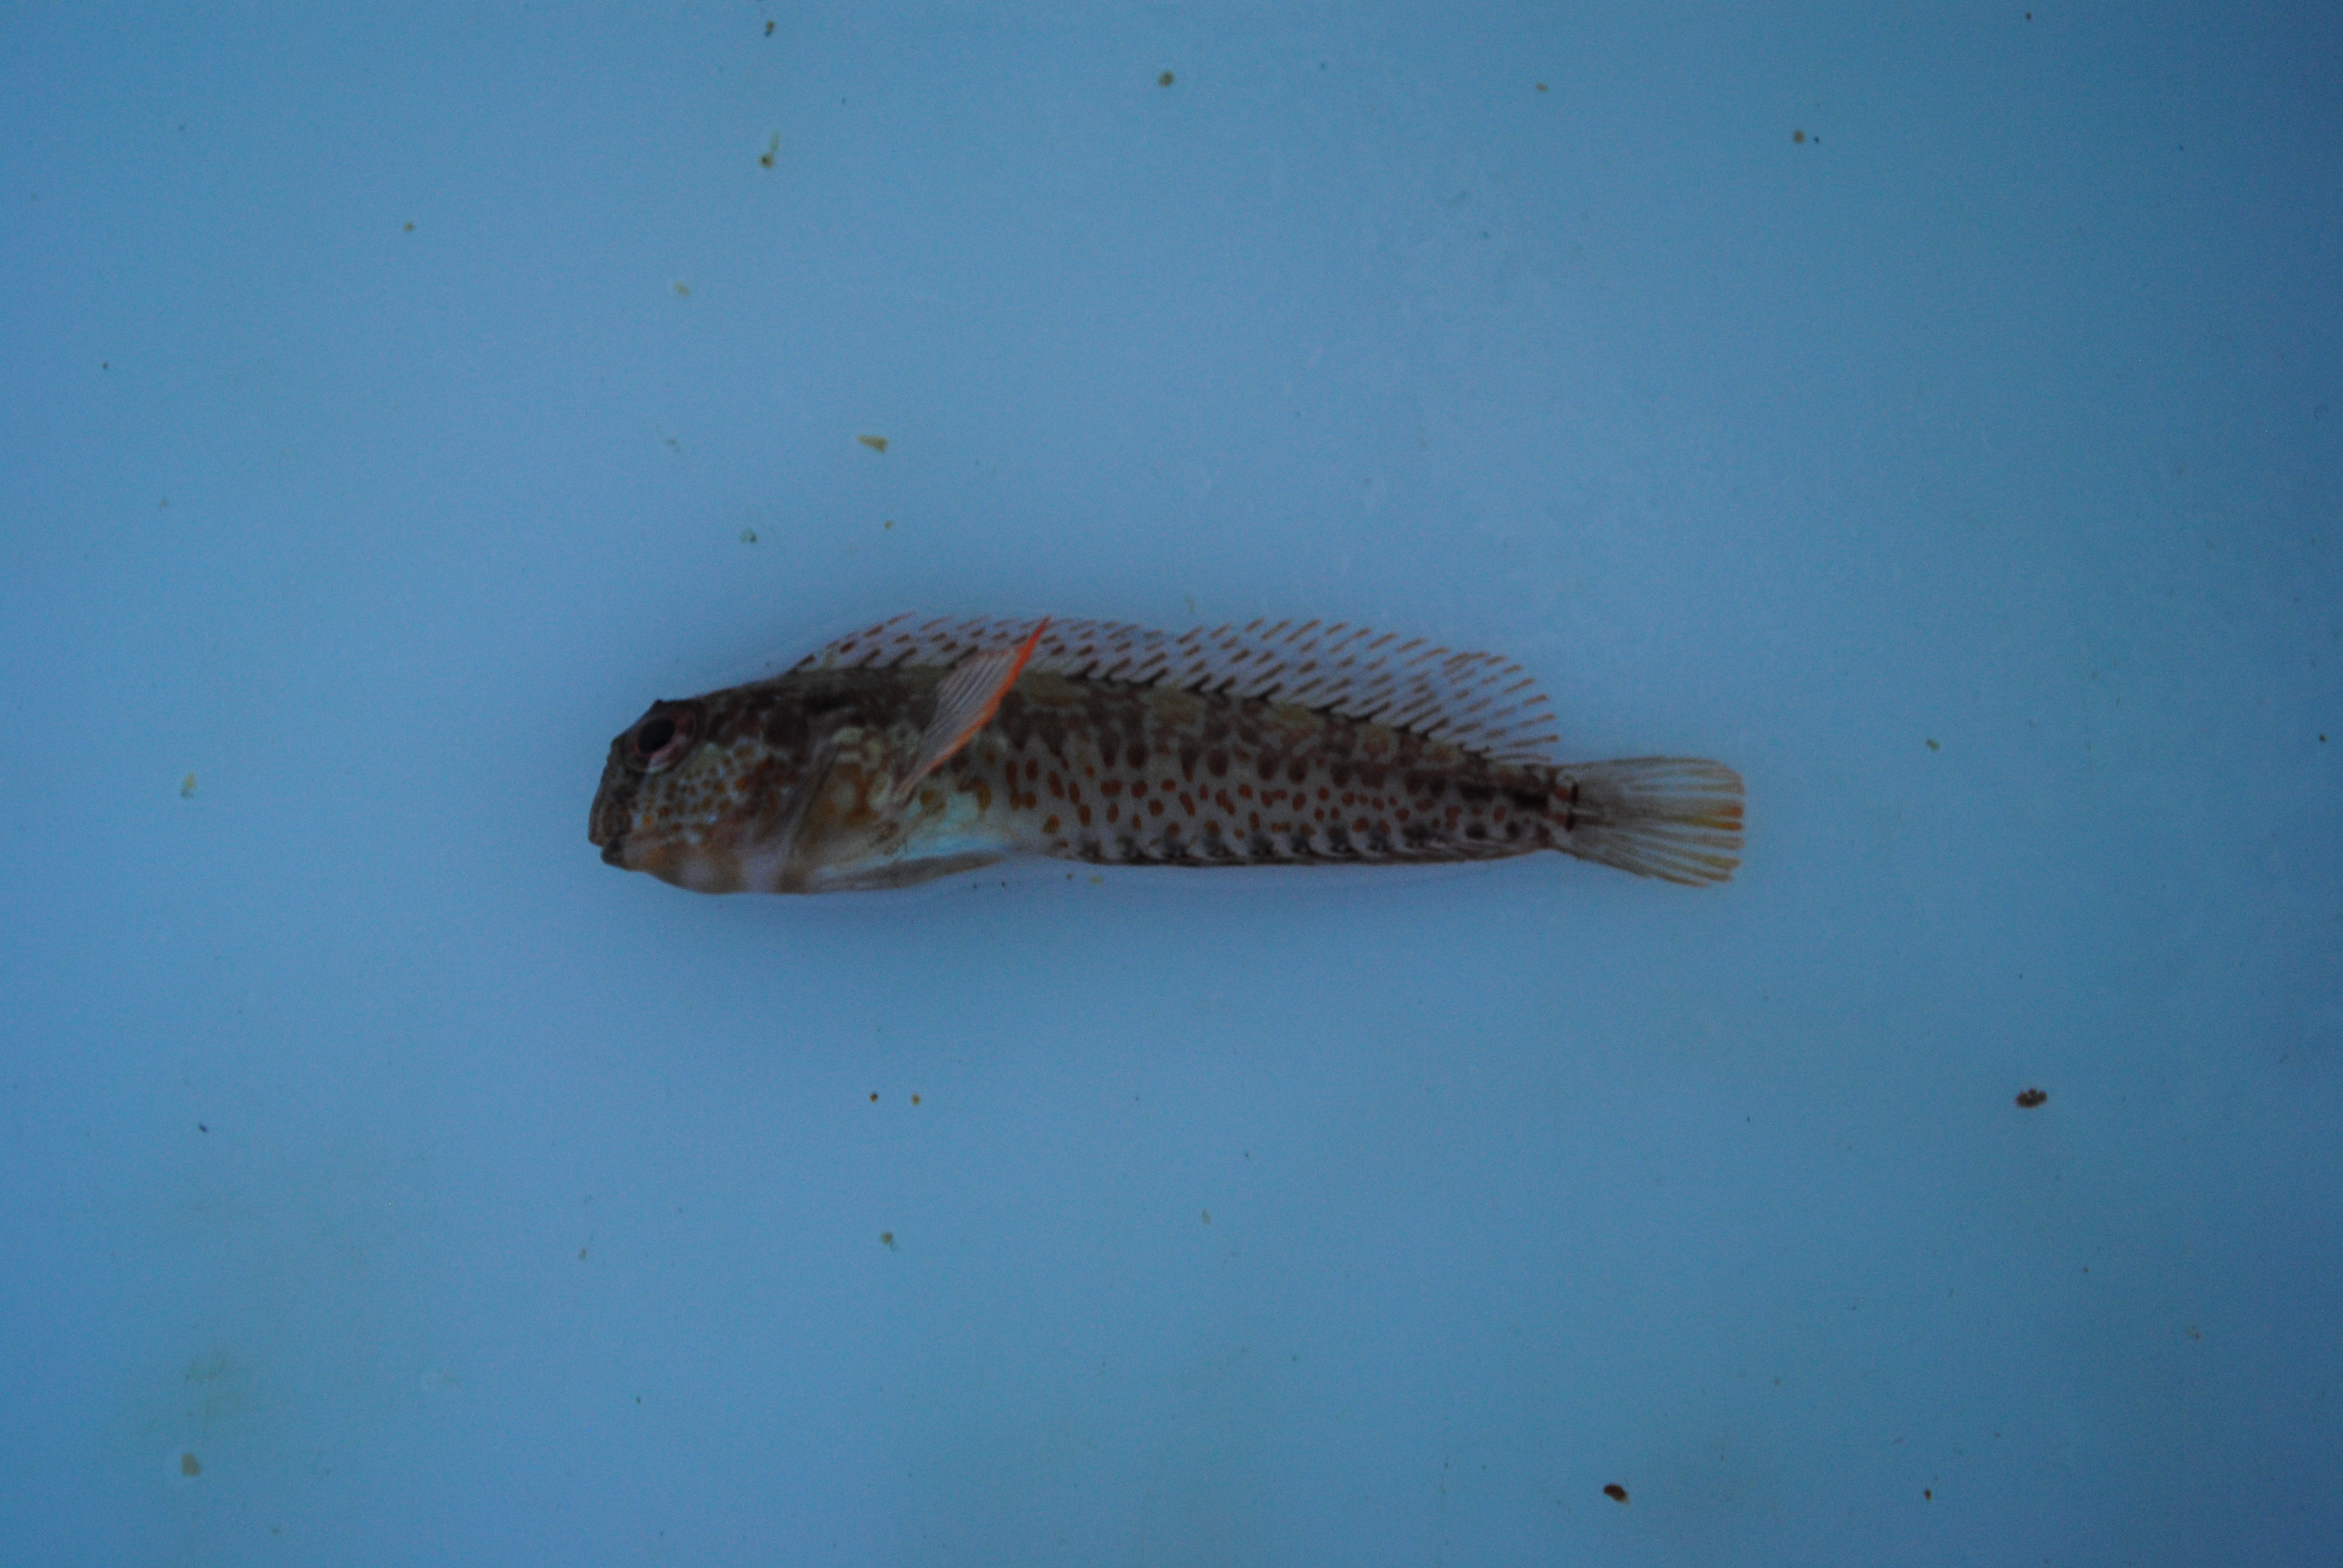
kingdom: Animalia
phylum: Chordata
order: Perciformes
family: Blenniidae
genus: Parablennius
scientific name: Parablennius cornutus
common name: Horned blenny
